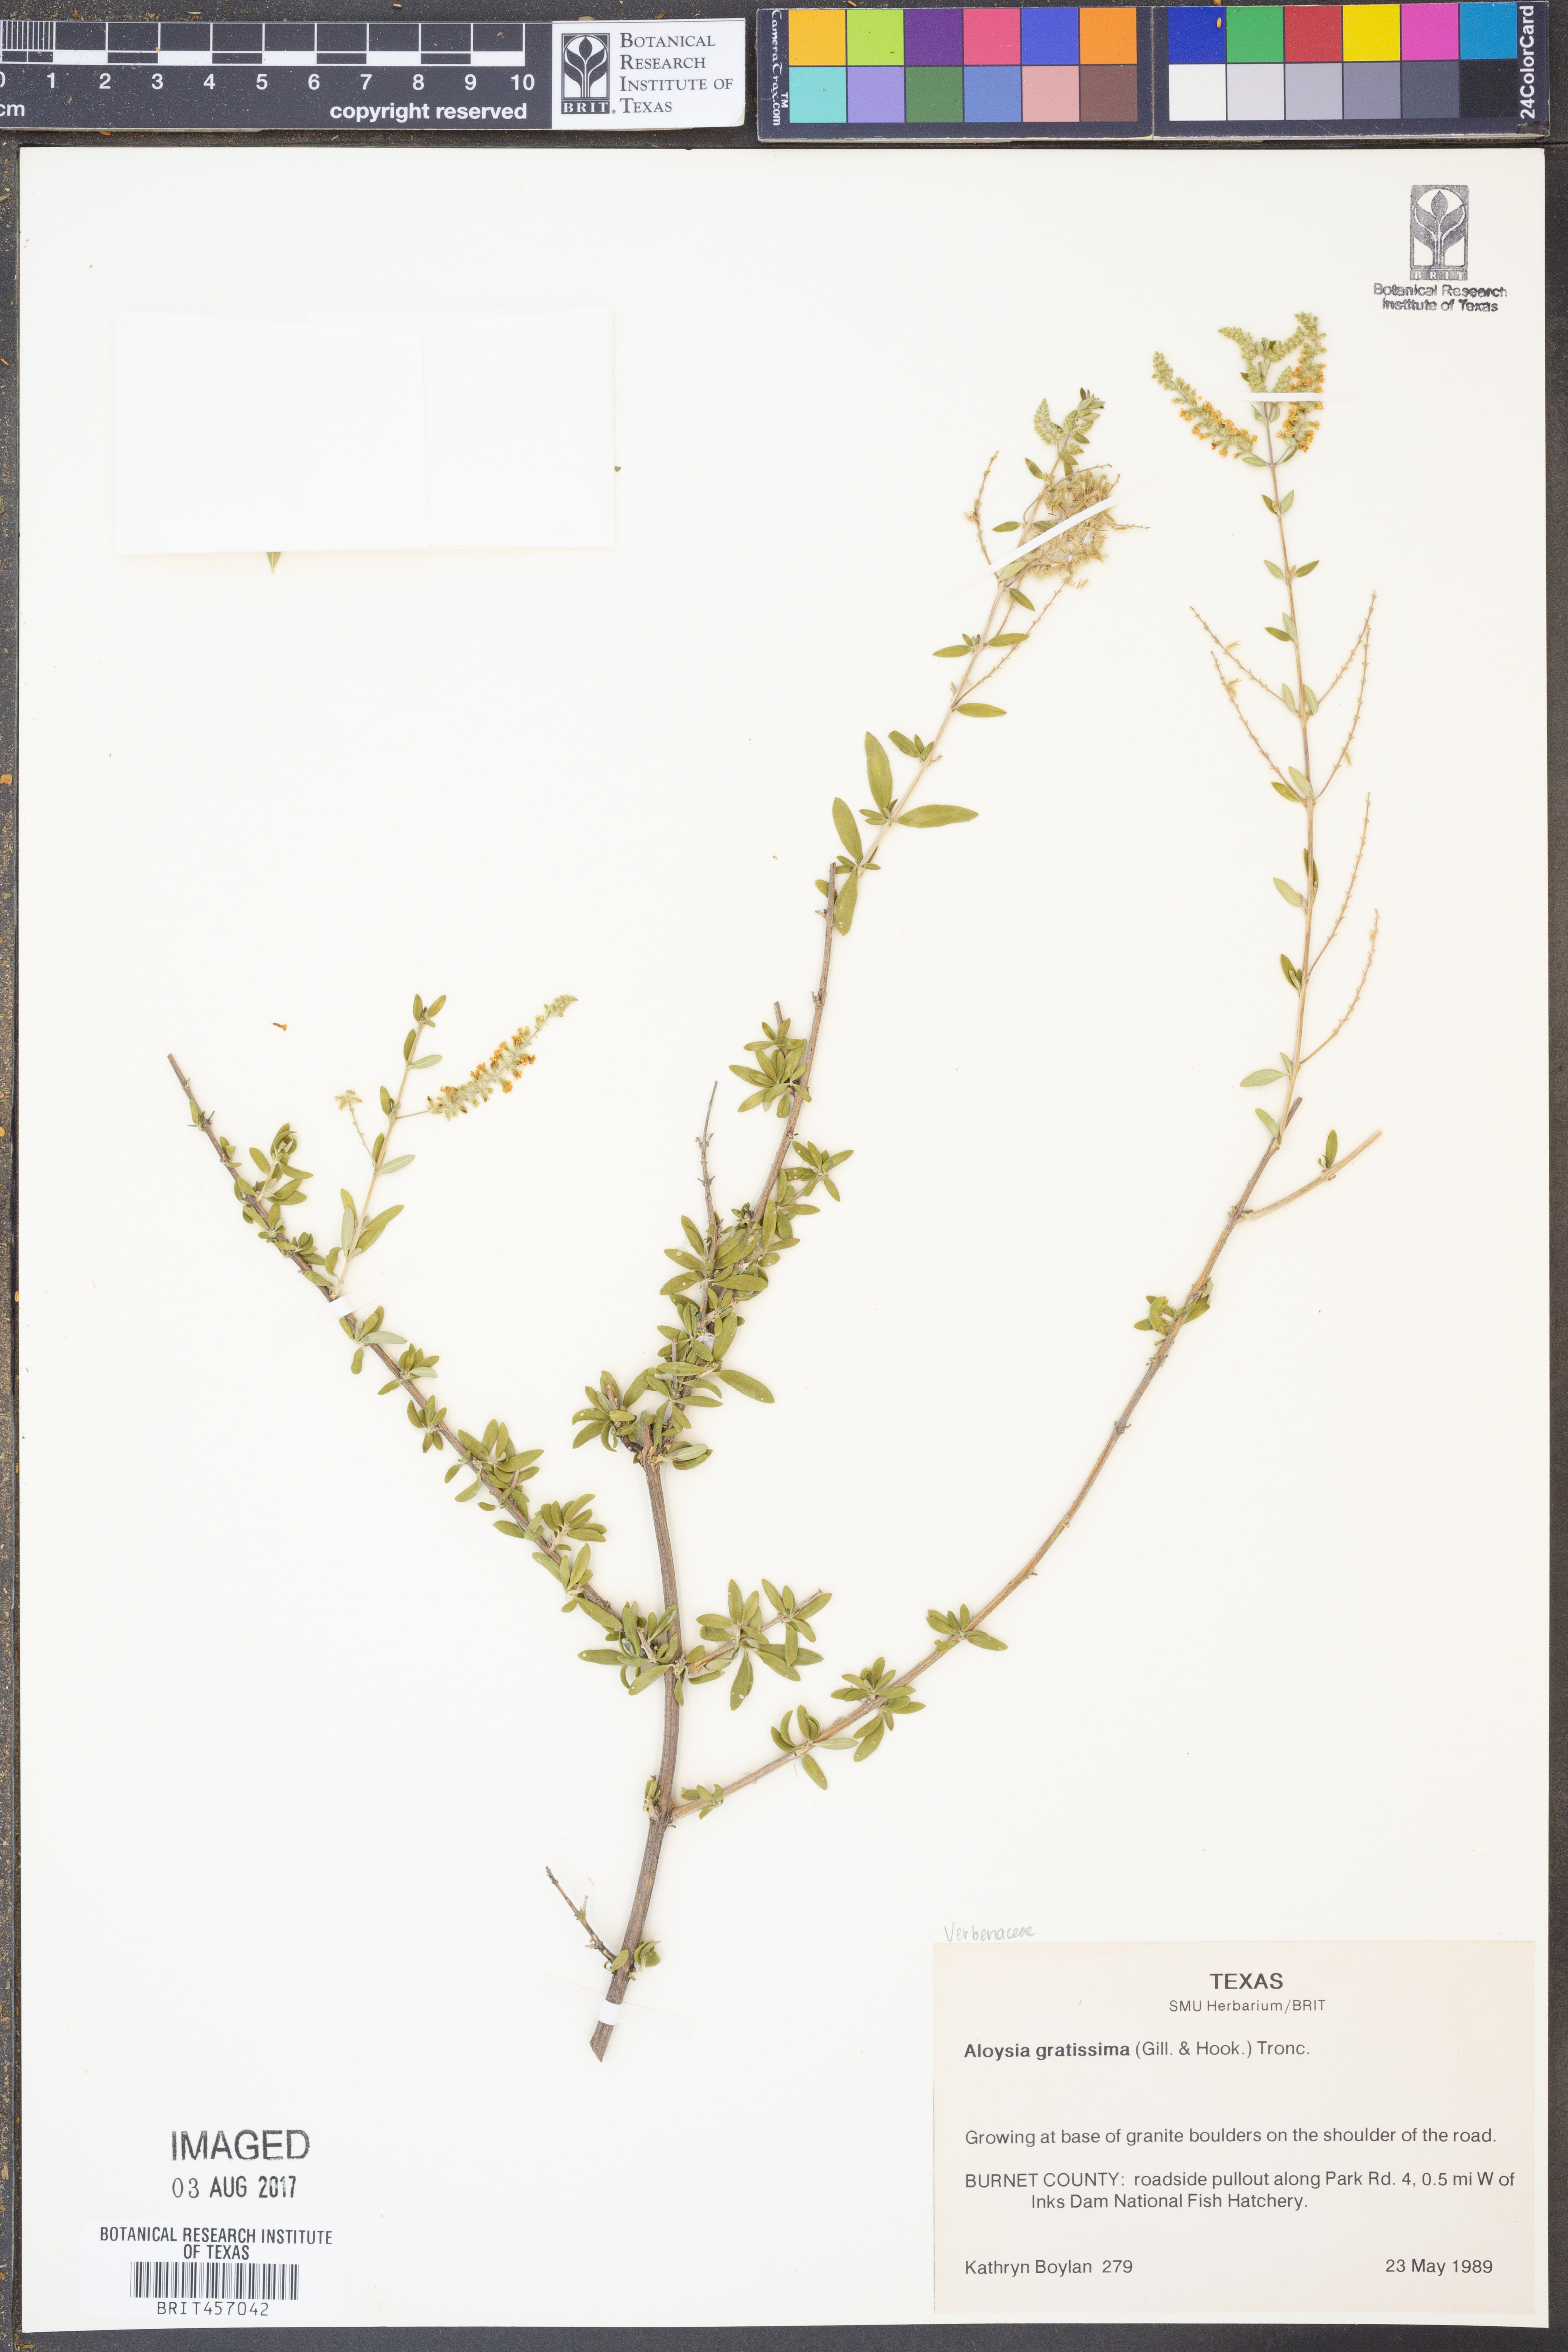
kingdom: Plantae
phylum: Tracheophyta
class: Magnoliopsida
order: Lamiales
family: Verbenaceae
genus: Aloysia
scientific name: Aloysia gratissima
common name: Common bee-brush
